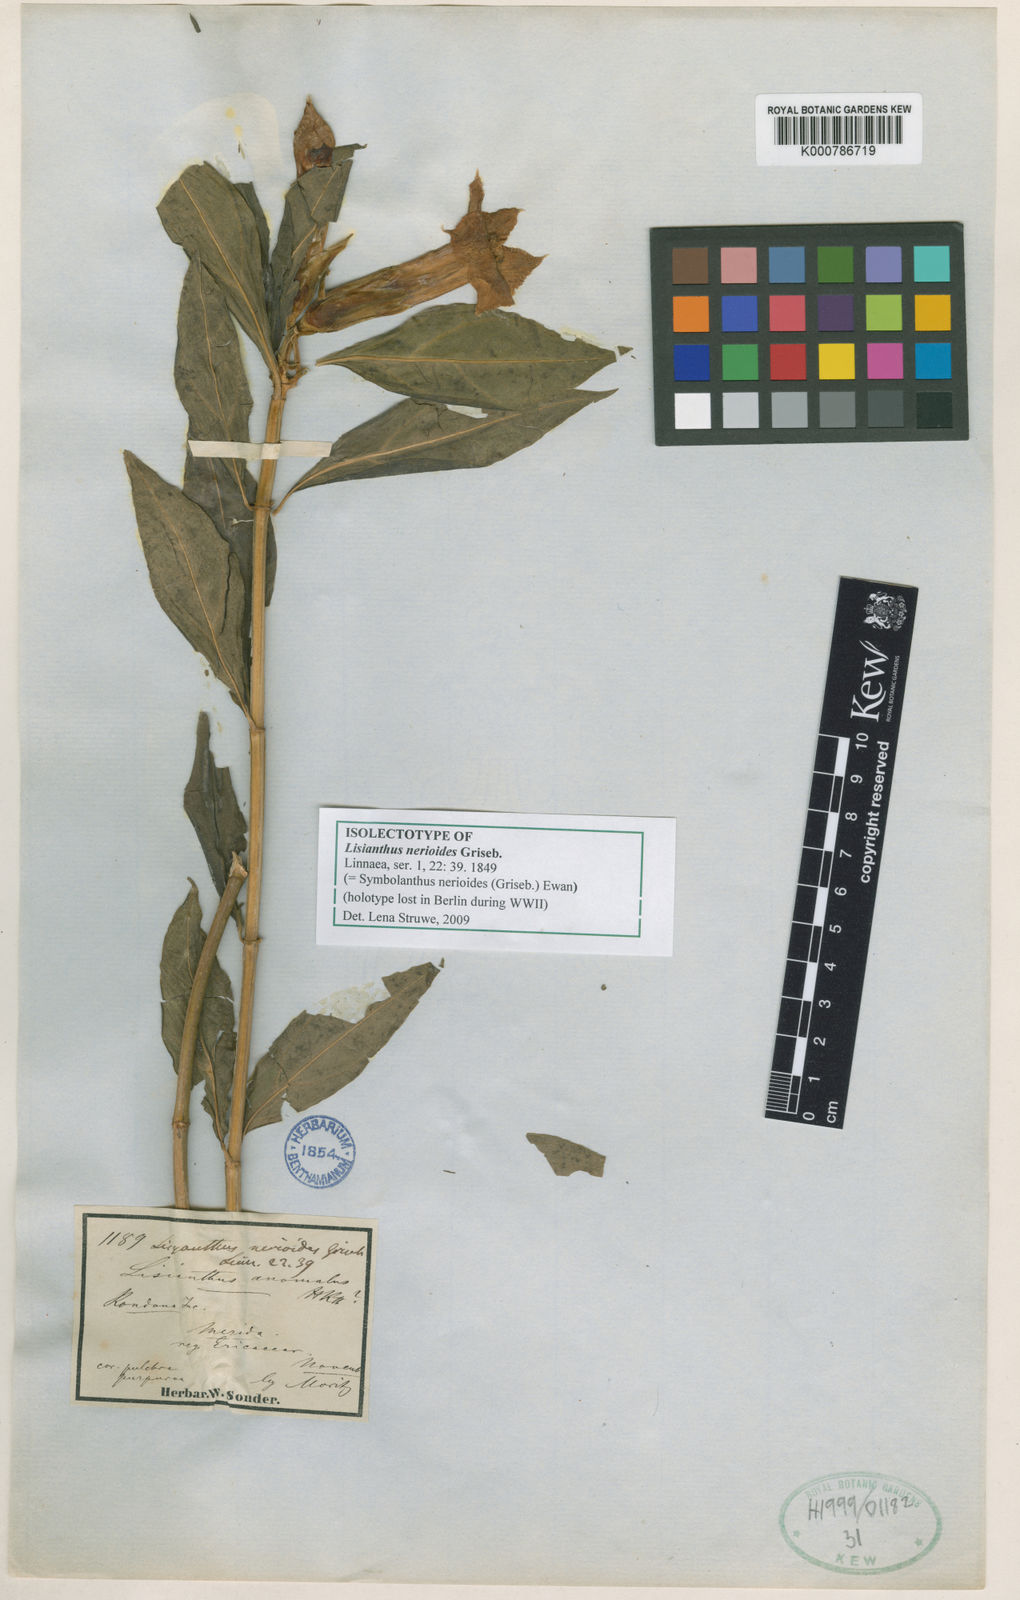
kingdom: Plantae
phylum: Tracheophyta
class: Magnoliopsida
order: Gentianales
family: Gentianaceae
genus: Symbolanthus
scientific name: Symbolanthus anomalus
